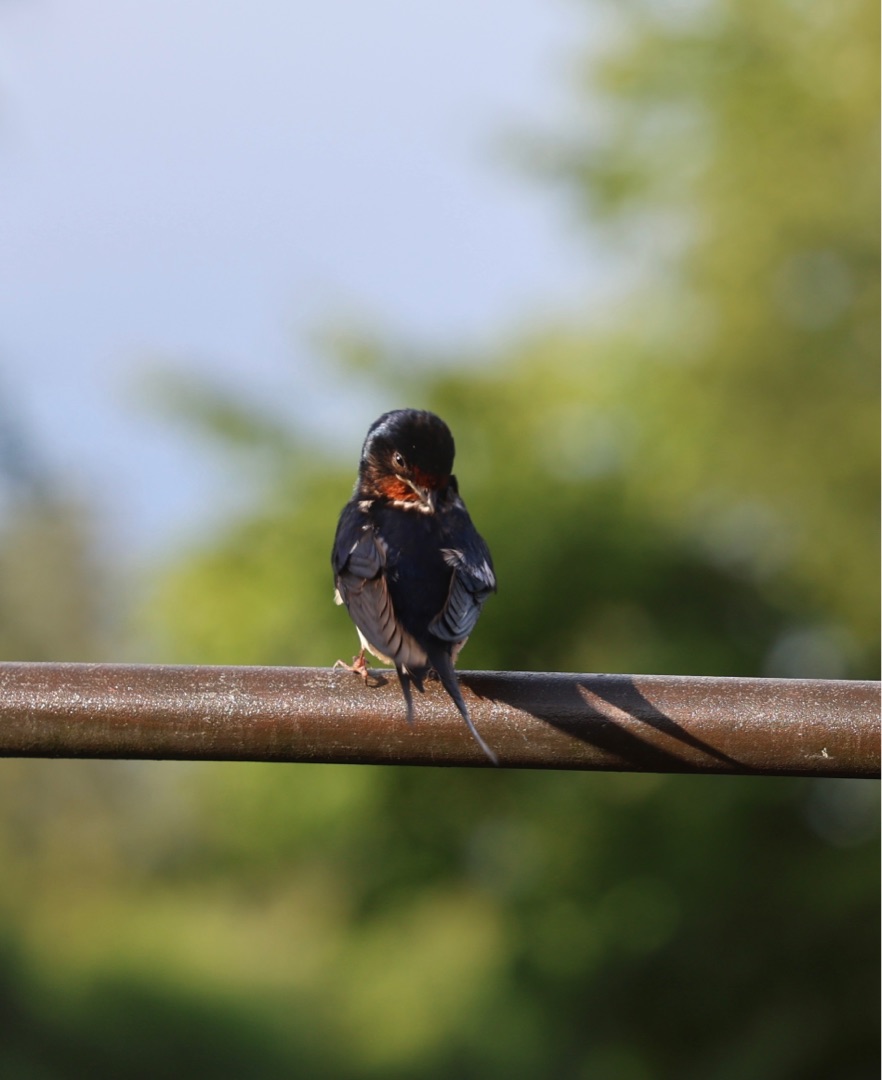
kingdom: Animalia
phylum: Chordata
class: Aves
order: Passeriformes
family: Hirundinidae
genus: Hirundo
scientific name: Hirundo rustica
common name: Landsvale
